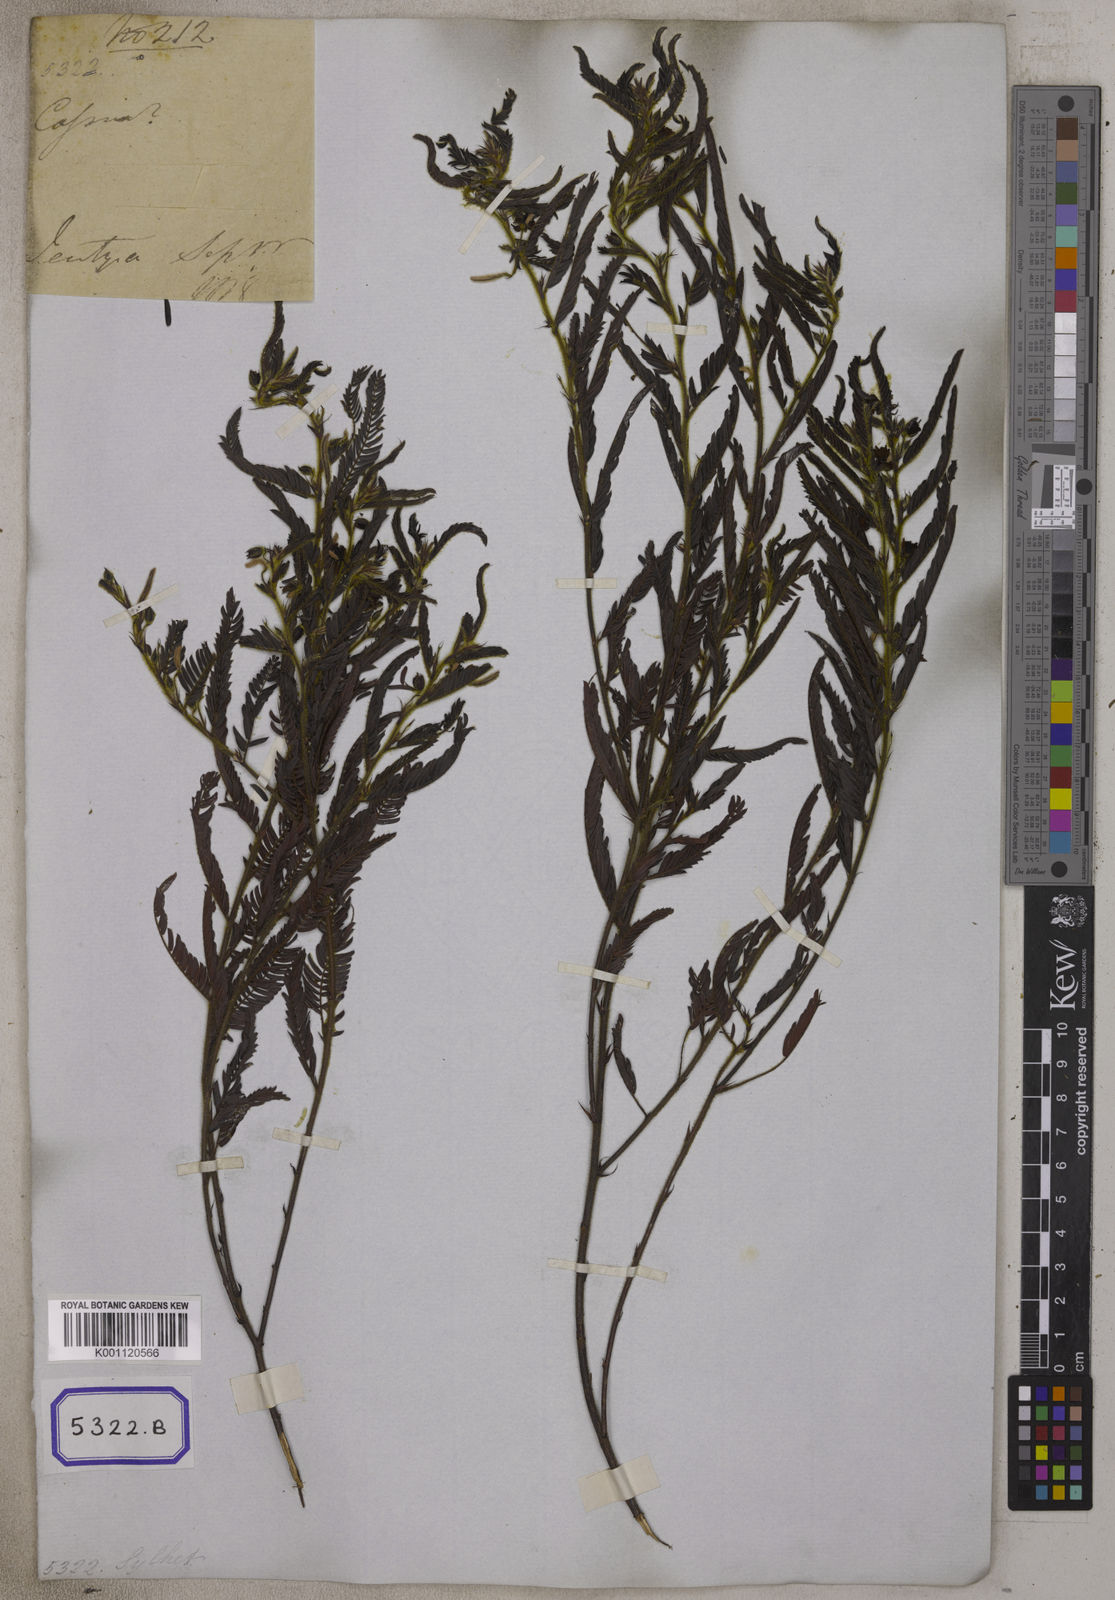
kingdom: Plantae
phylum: Tracheophyta
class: Magnoliopsida
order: Fabales
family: Fabaceae
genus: Cassia
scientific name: Cassia
